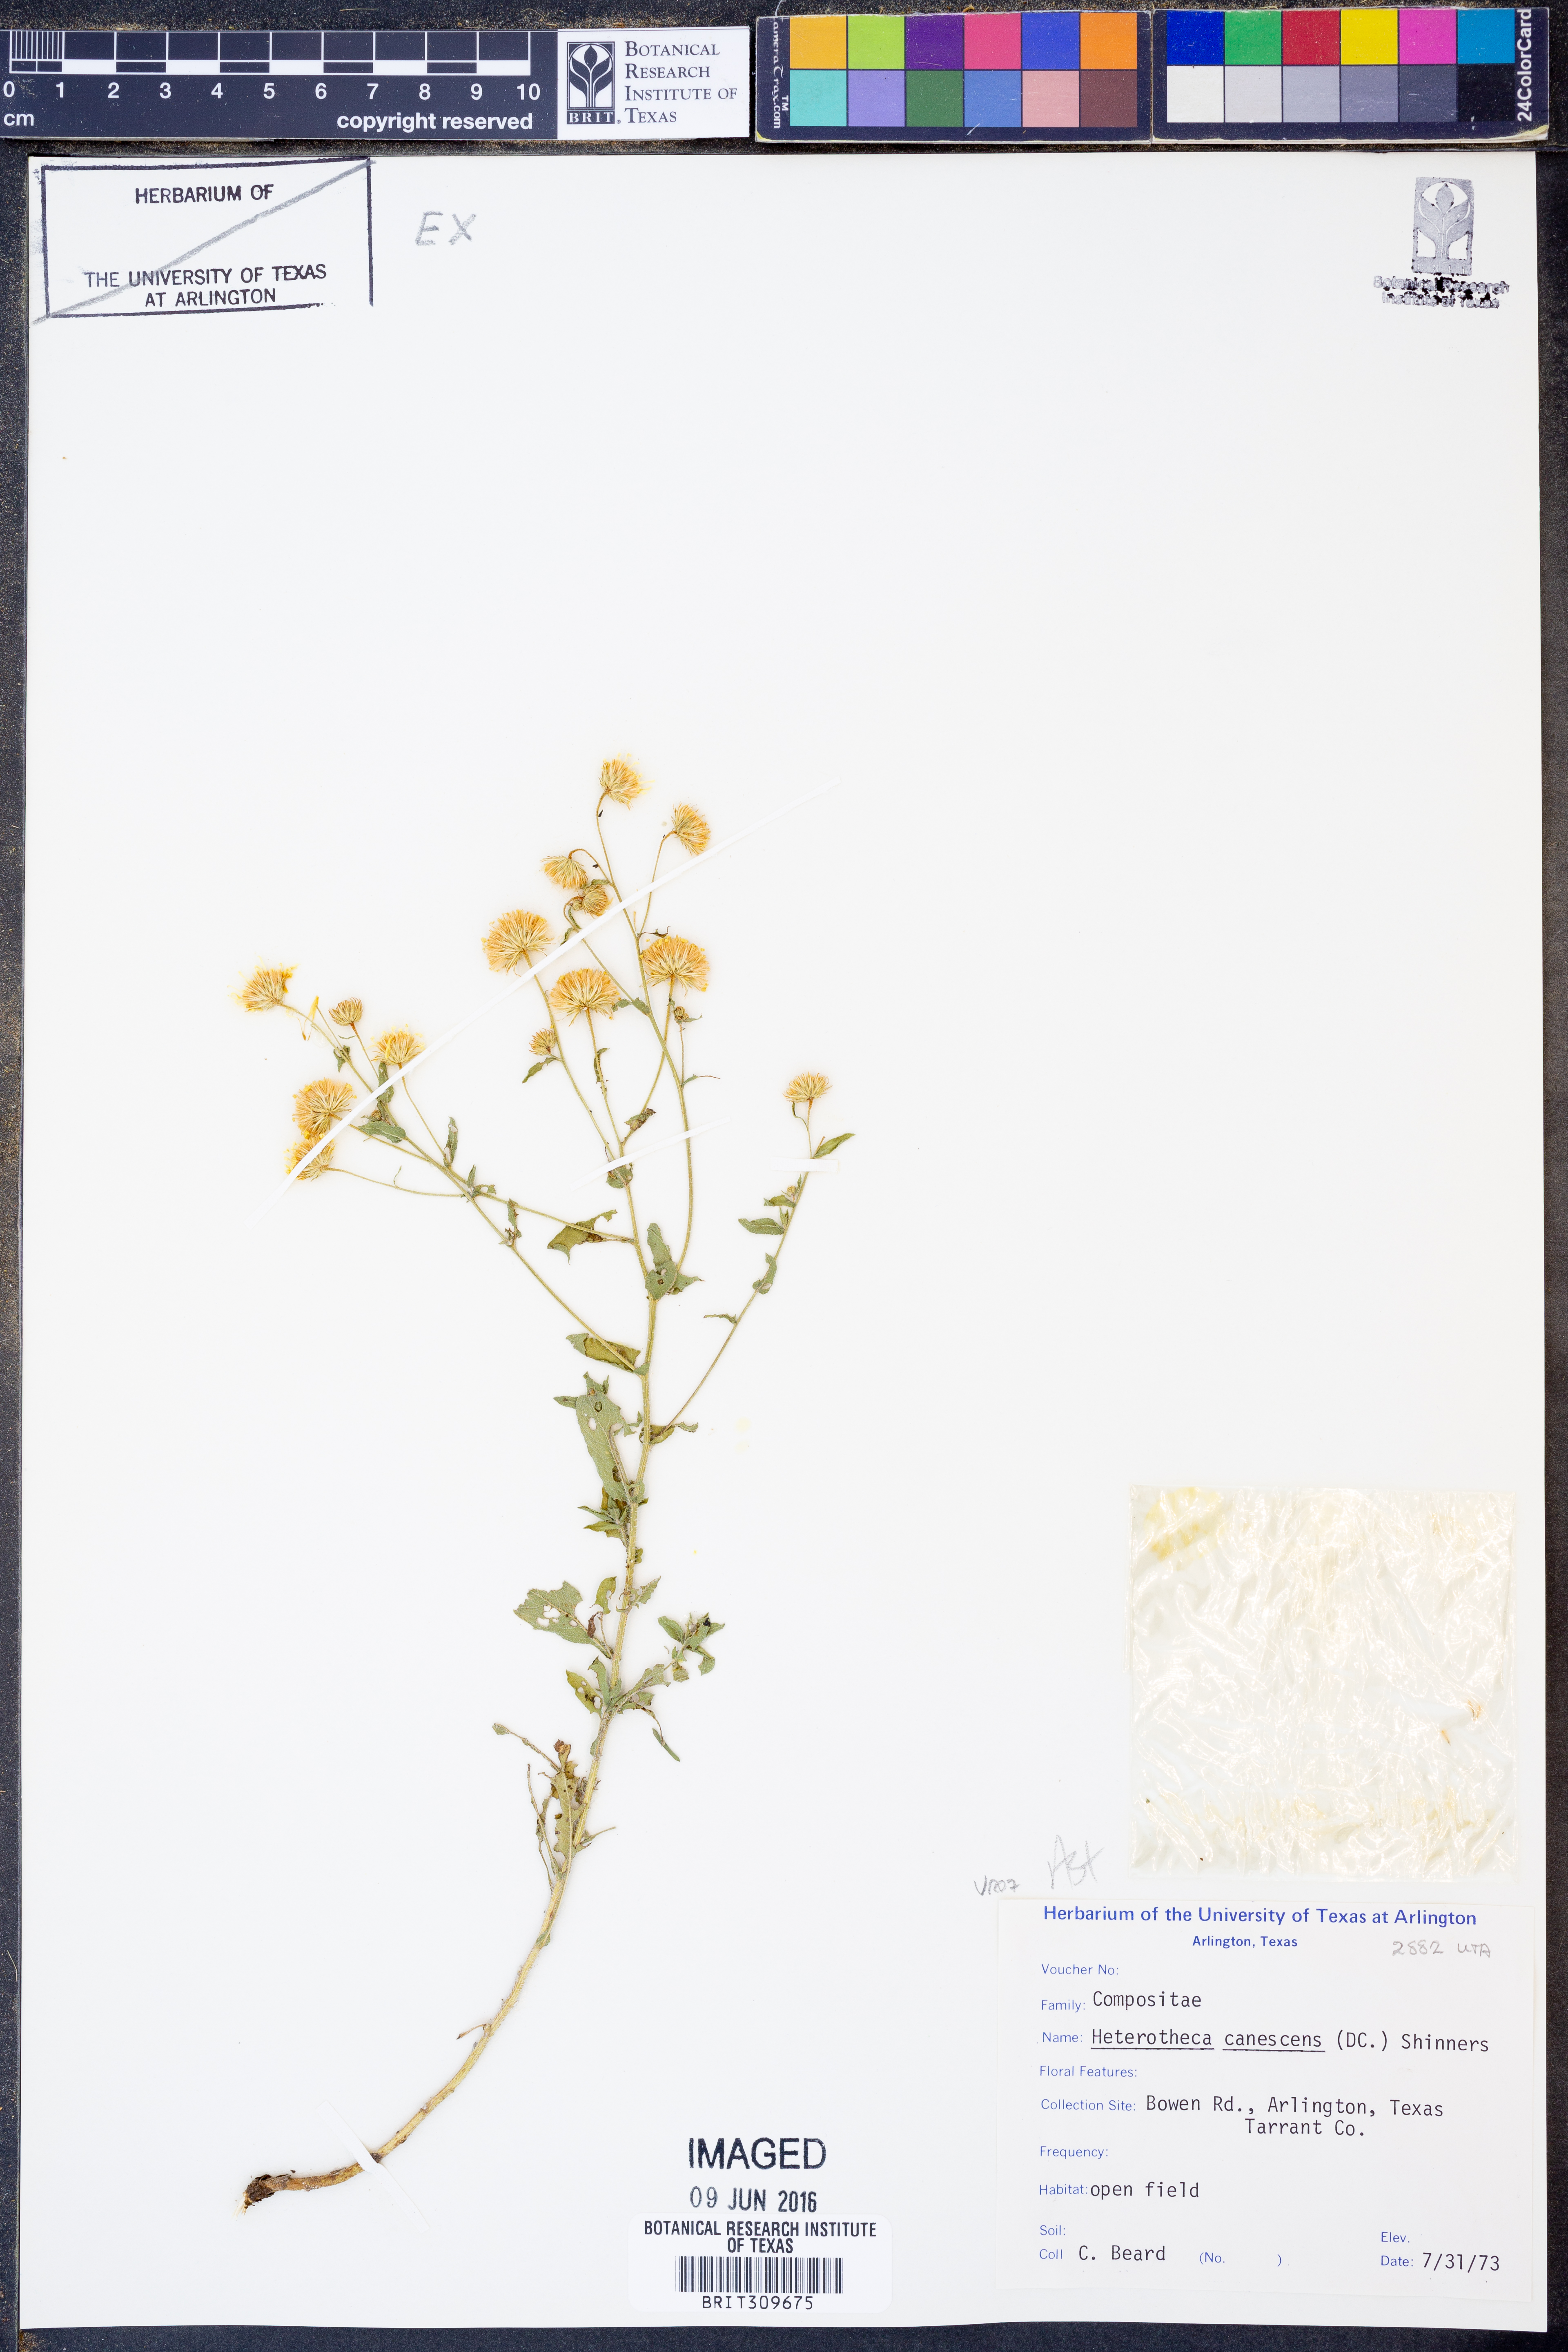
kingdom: Plantae
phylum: Tracheophyta
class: Magnoliopsida
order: Asterales
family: Asteraceae
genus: Heterotheca
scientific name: Heterotheca canescens
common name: Hoary golden-aster
